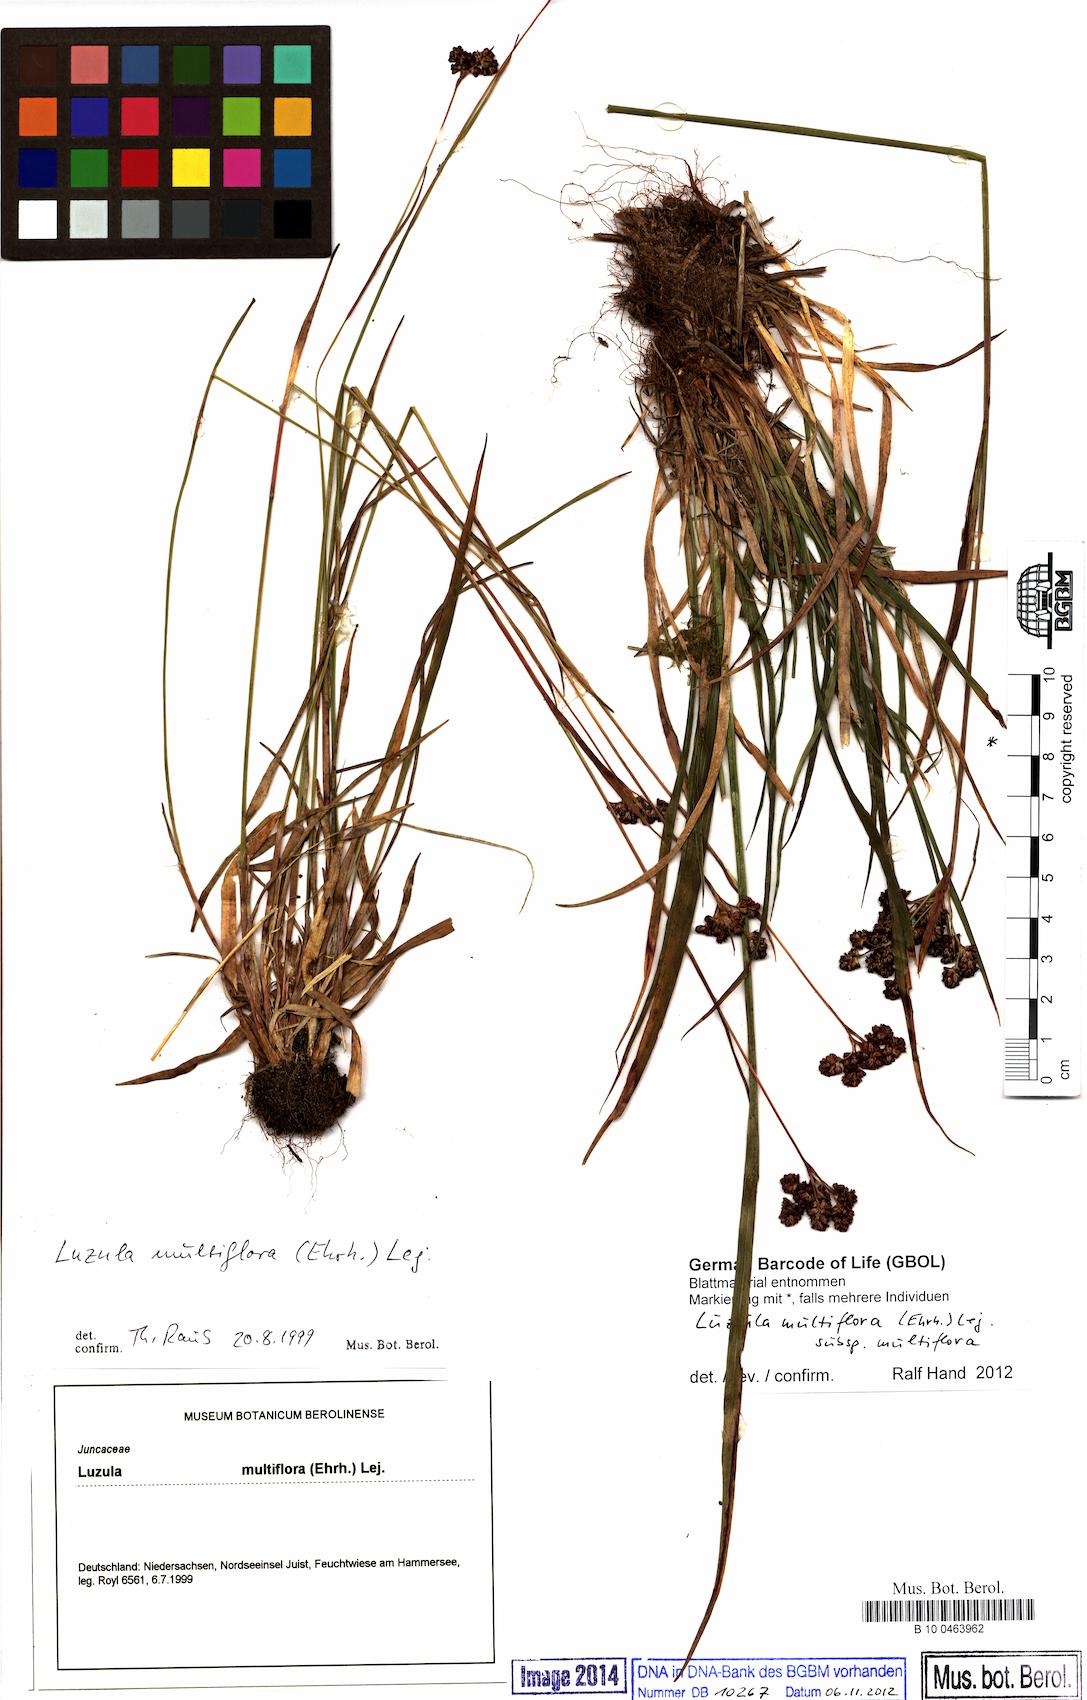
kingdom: Plantae
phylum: Tracheophyta
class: Liliopsida
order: Poales
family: Juncaceae
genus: Luzula
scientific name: Luzula multiflora
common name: Heath wood-rush
